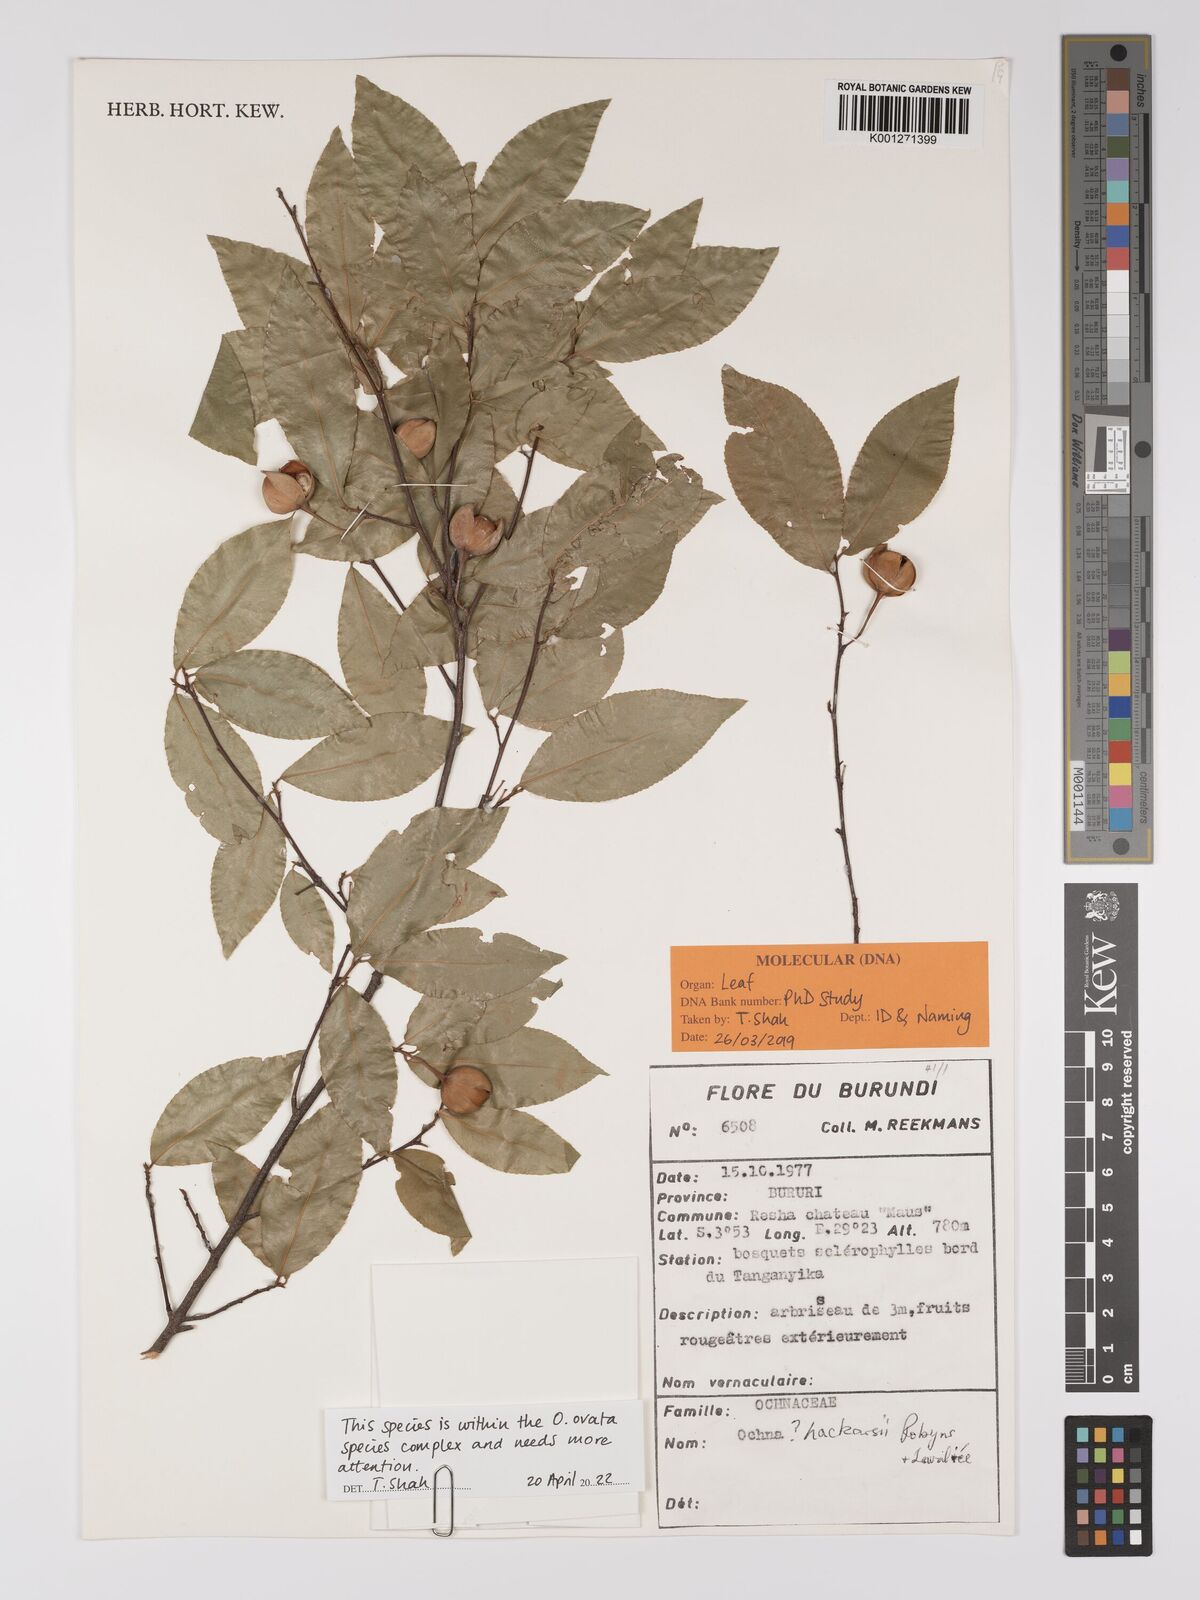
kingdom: Plantae
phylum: Tracheophyta
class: Magnoliopsida
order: Malpighiales
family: Ochnaceae
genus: Ochna
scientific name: Ochna hackarsii
